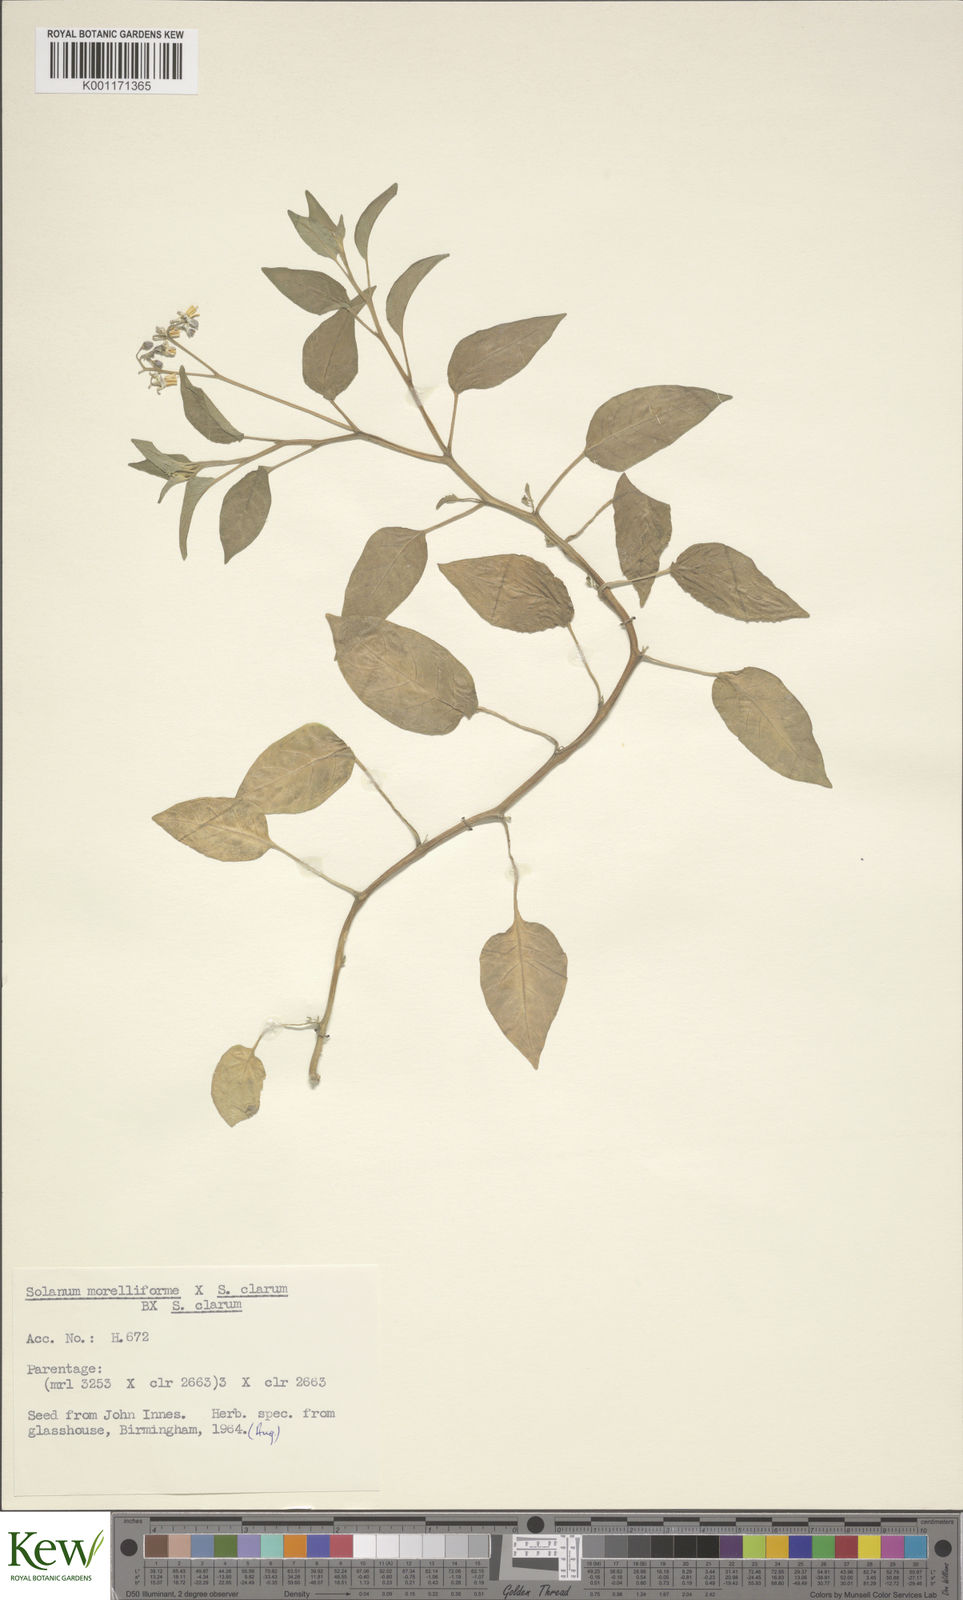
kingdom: Plantae
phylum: Tracheophyta
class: Magnoliopsida
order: Solanales
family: Solanaceae
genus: Solanum
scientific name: Solanum
